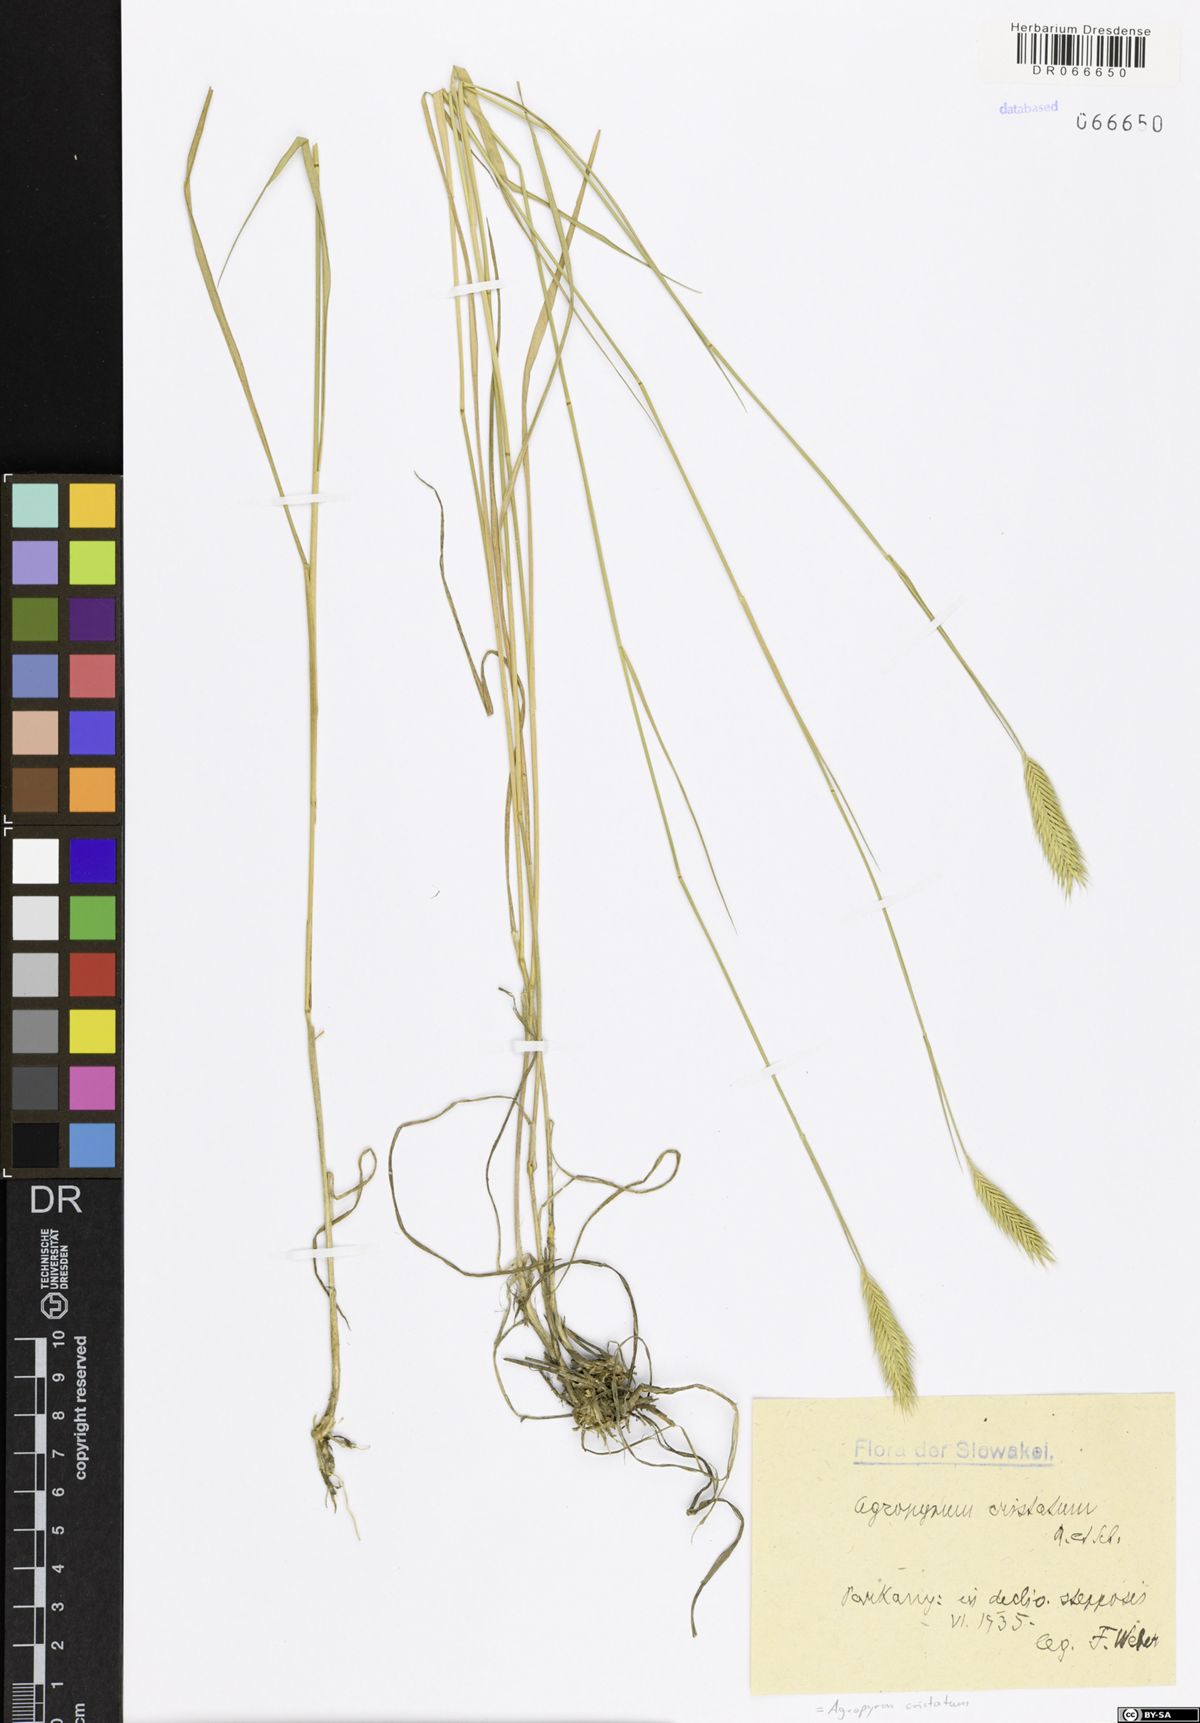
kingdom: Plantae
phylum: Tracheophyta
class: Liliopsida
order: Poales
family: Poaceae
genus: Agropyron
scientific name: Agropyron cristatum
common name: Crested wheatgrass
